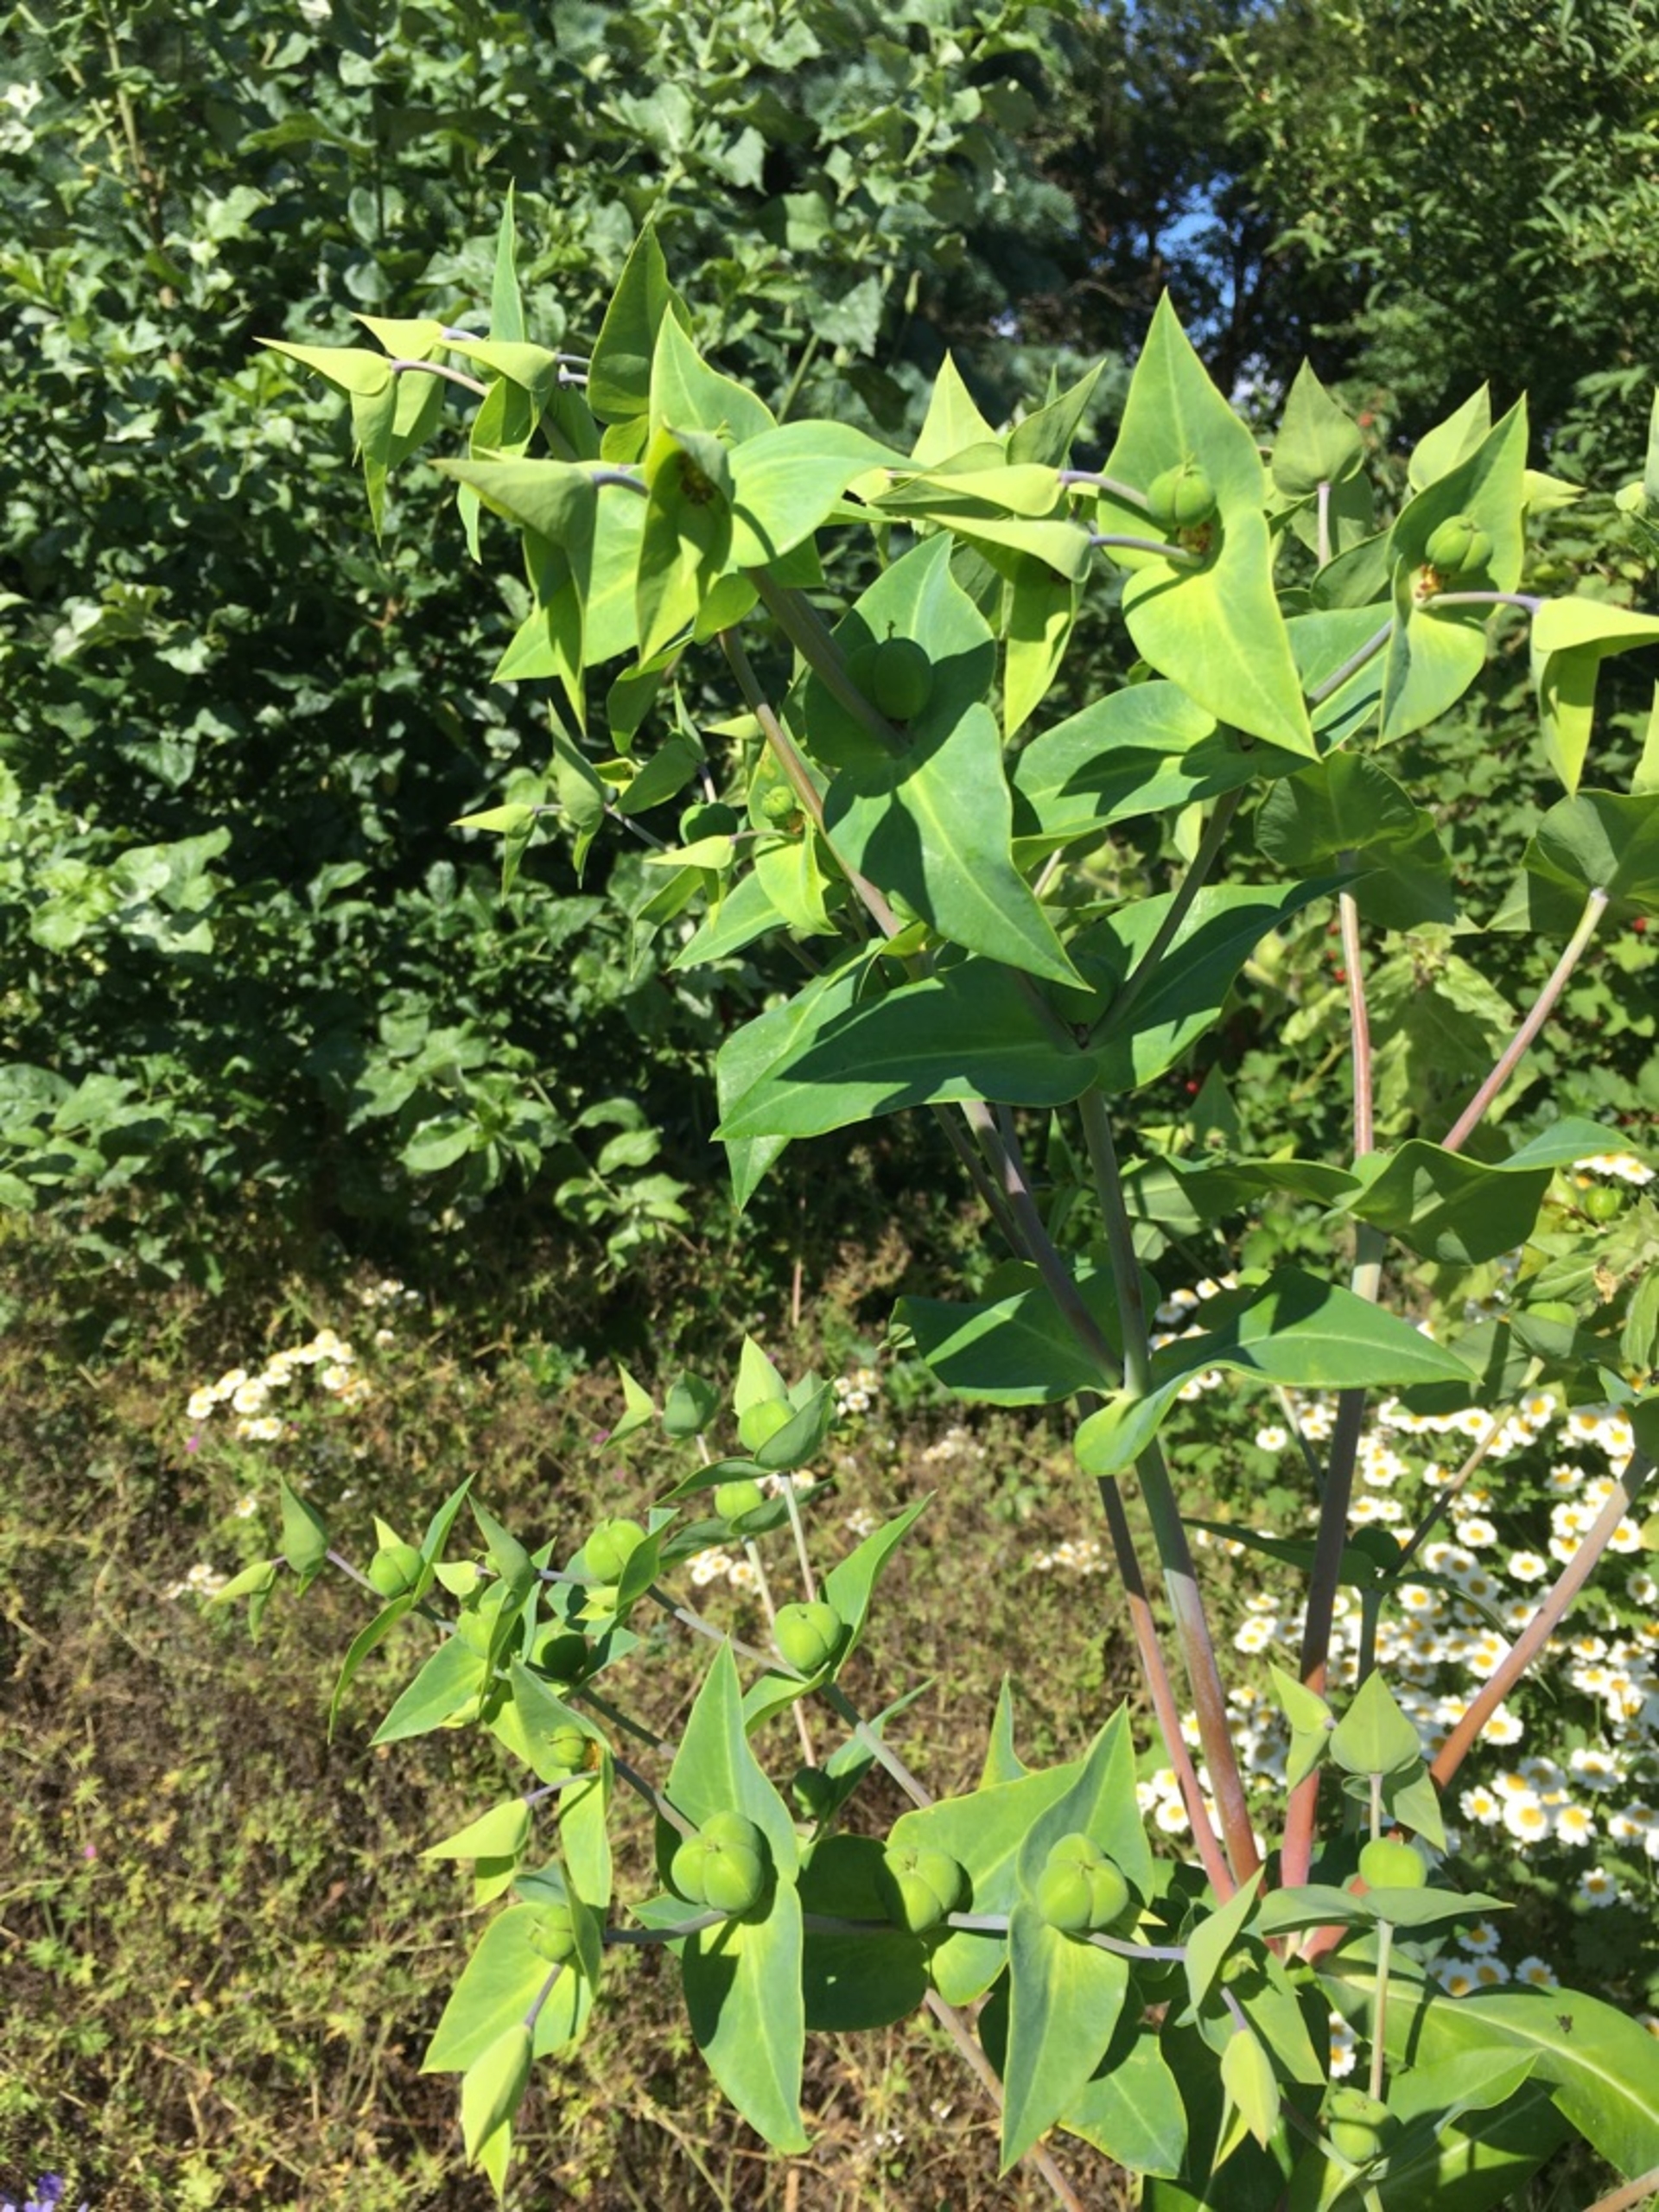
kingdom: Plantae
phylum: Tracheophyta
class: Magnoliopsida
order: Malpighiales
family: Euphorbiaceae
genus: Euphorbia
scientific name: Euphorbia lathyris
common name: Kors-vortemælk
